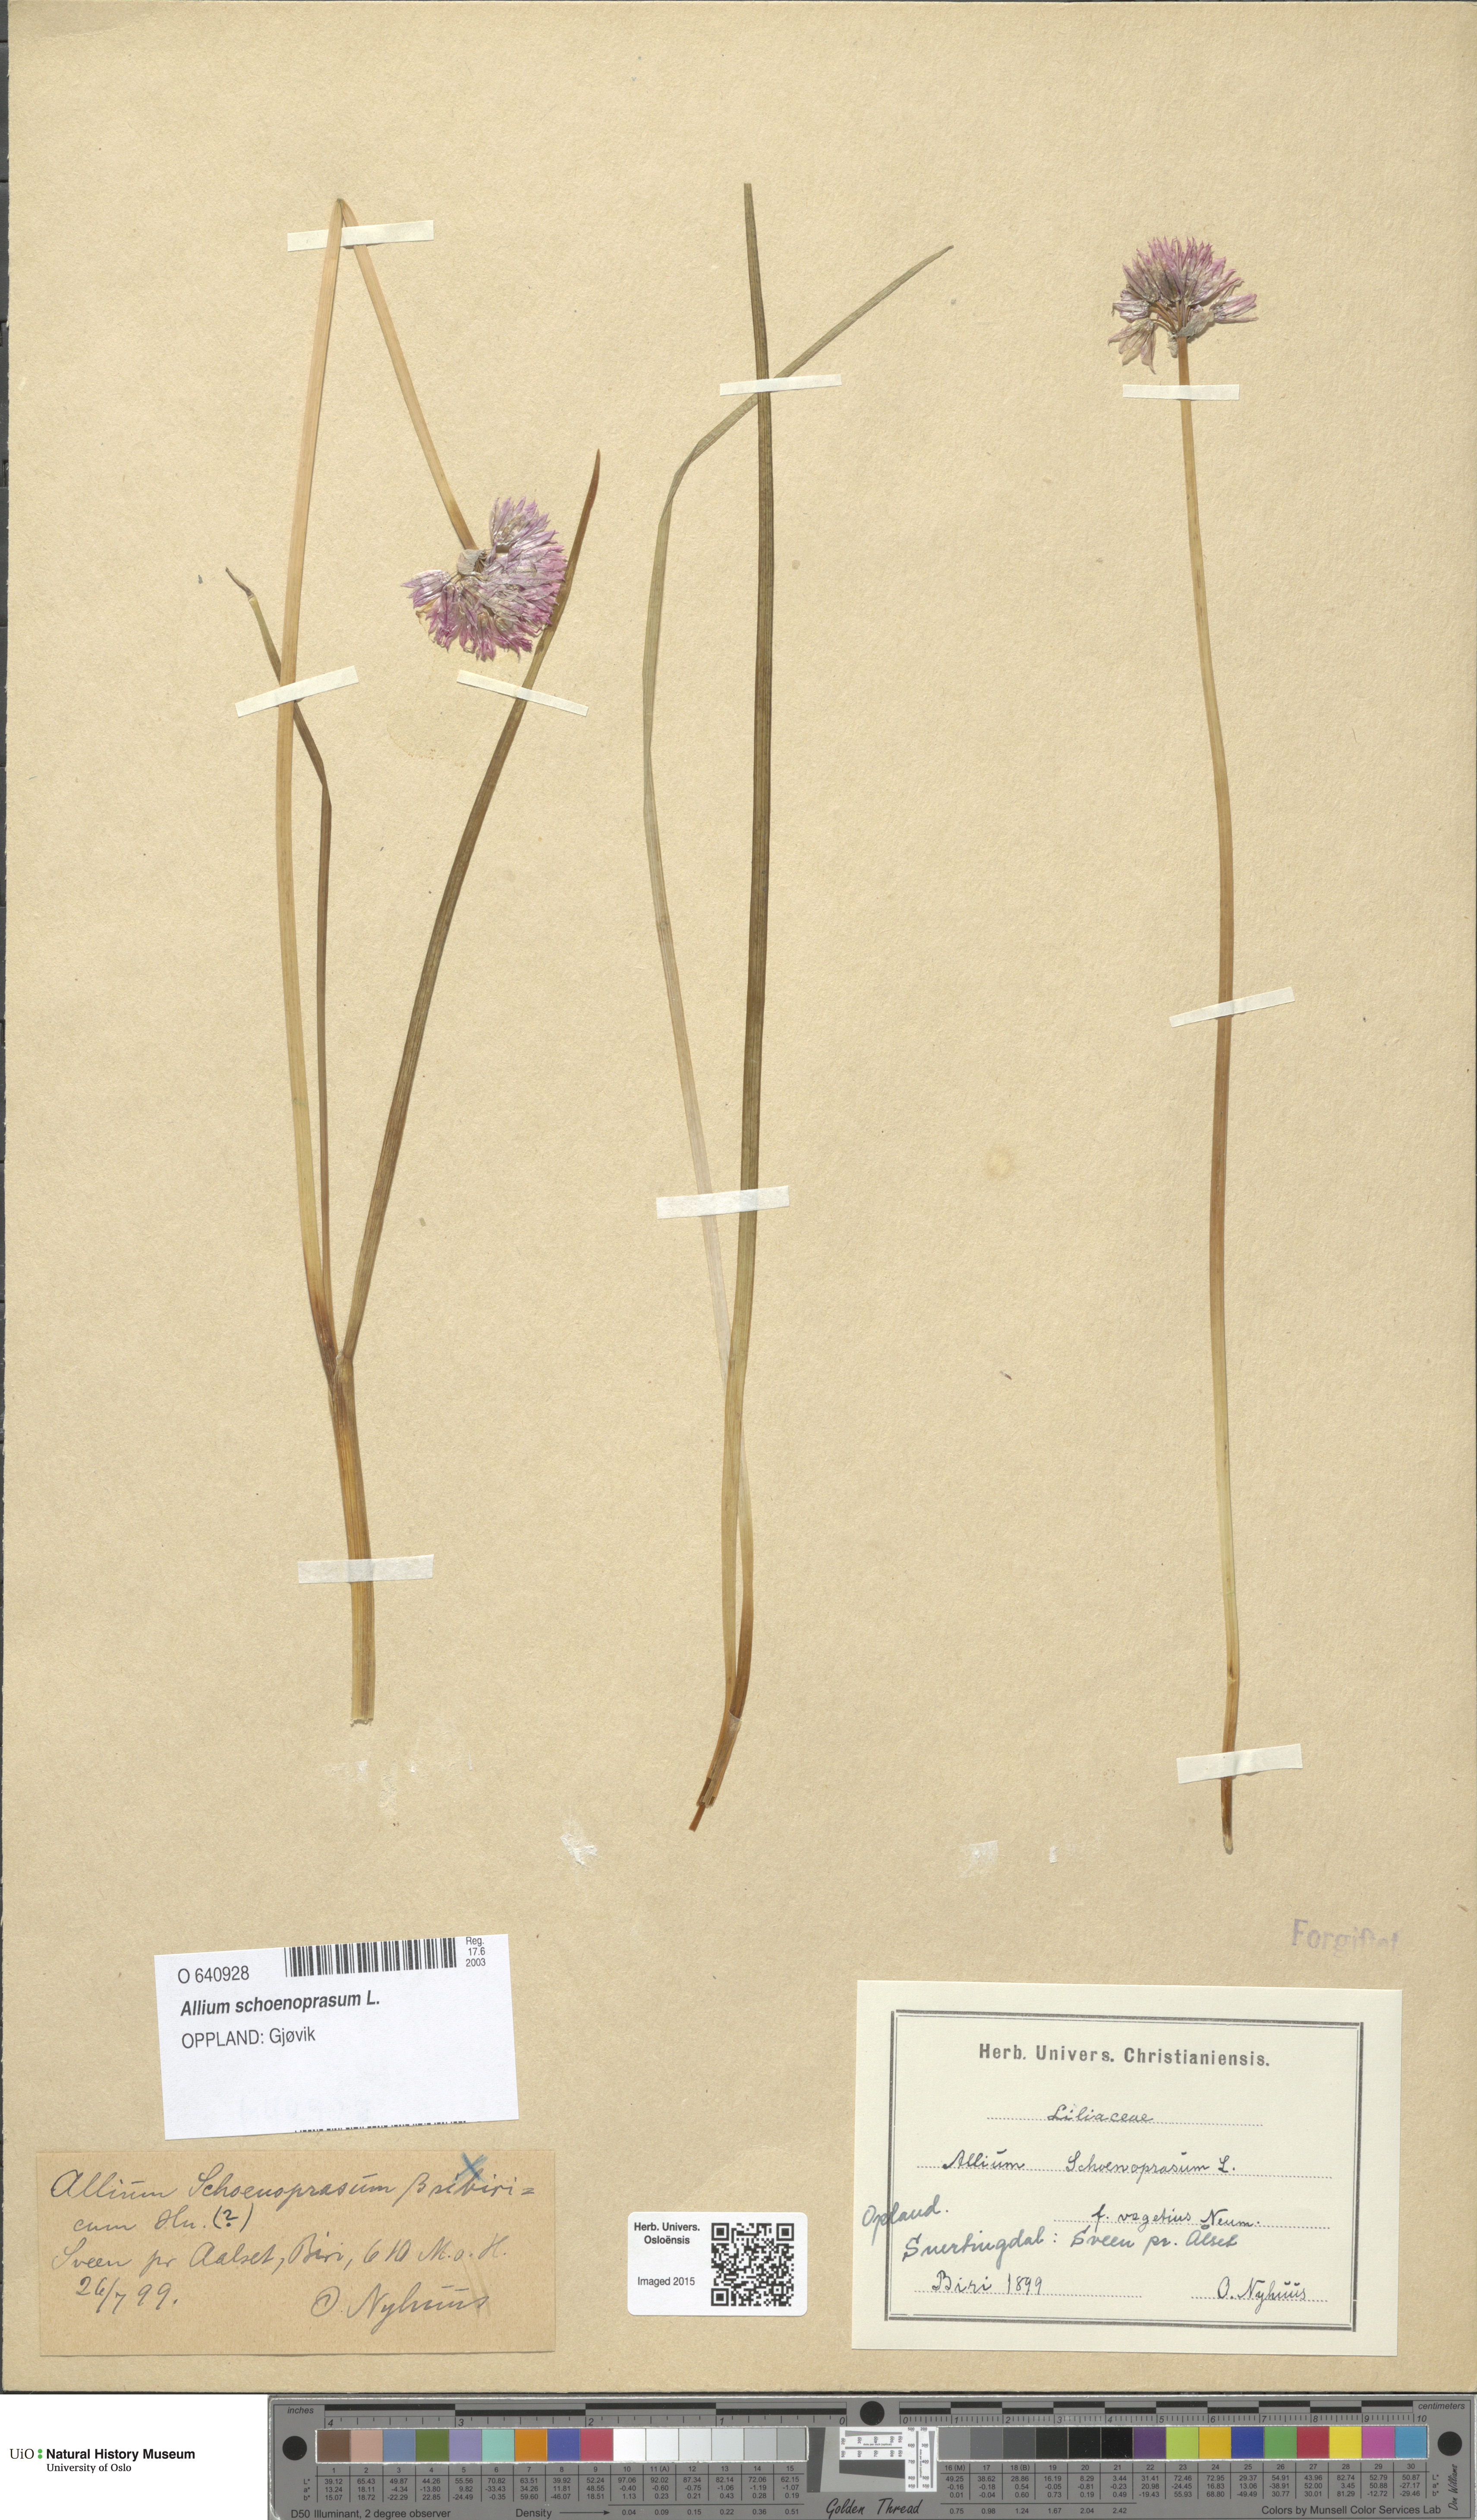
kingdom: Plantae
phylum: Tracheophyta
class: Liliopsida
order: Asparagales
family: Amaryllidaceae
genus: Allium
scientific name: Allium schoenoprasum
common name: Chives
